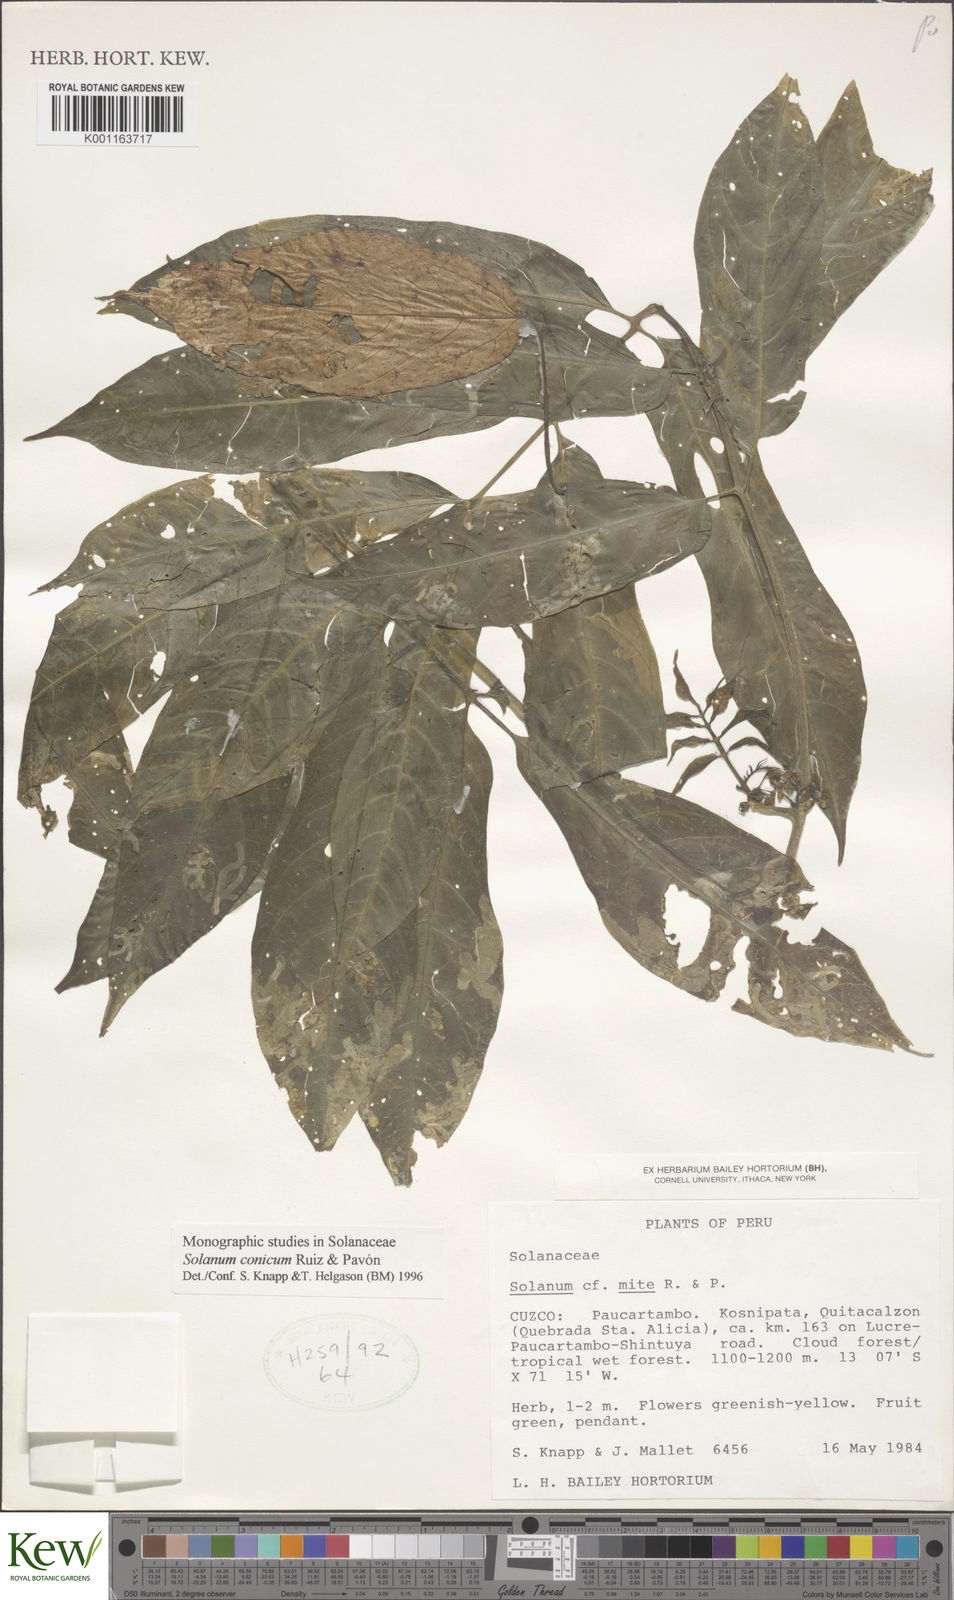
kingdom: Plantae
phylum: Tracheophyta
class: Magnoliopsida
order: Solanales
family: Solanaceae
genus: Solanum
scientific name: Solanum conicum
